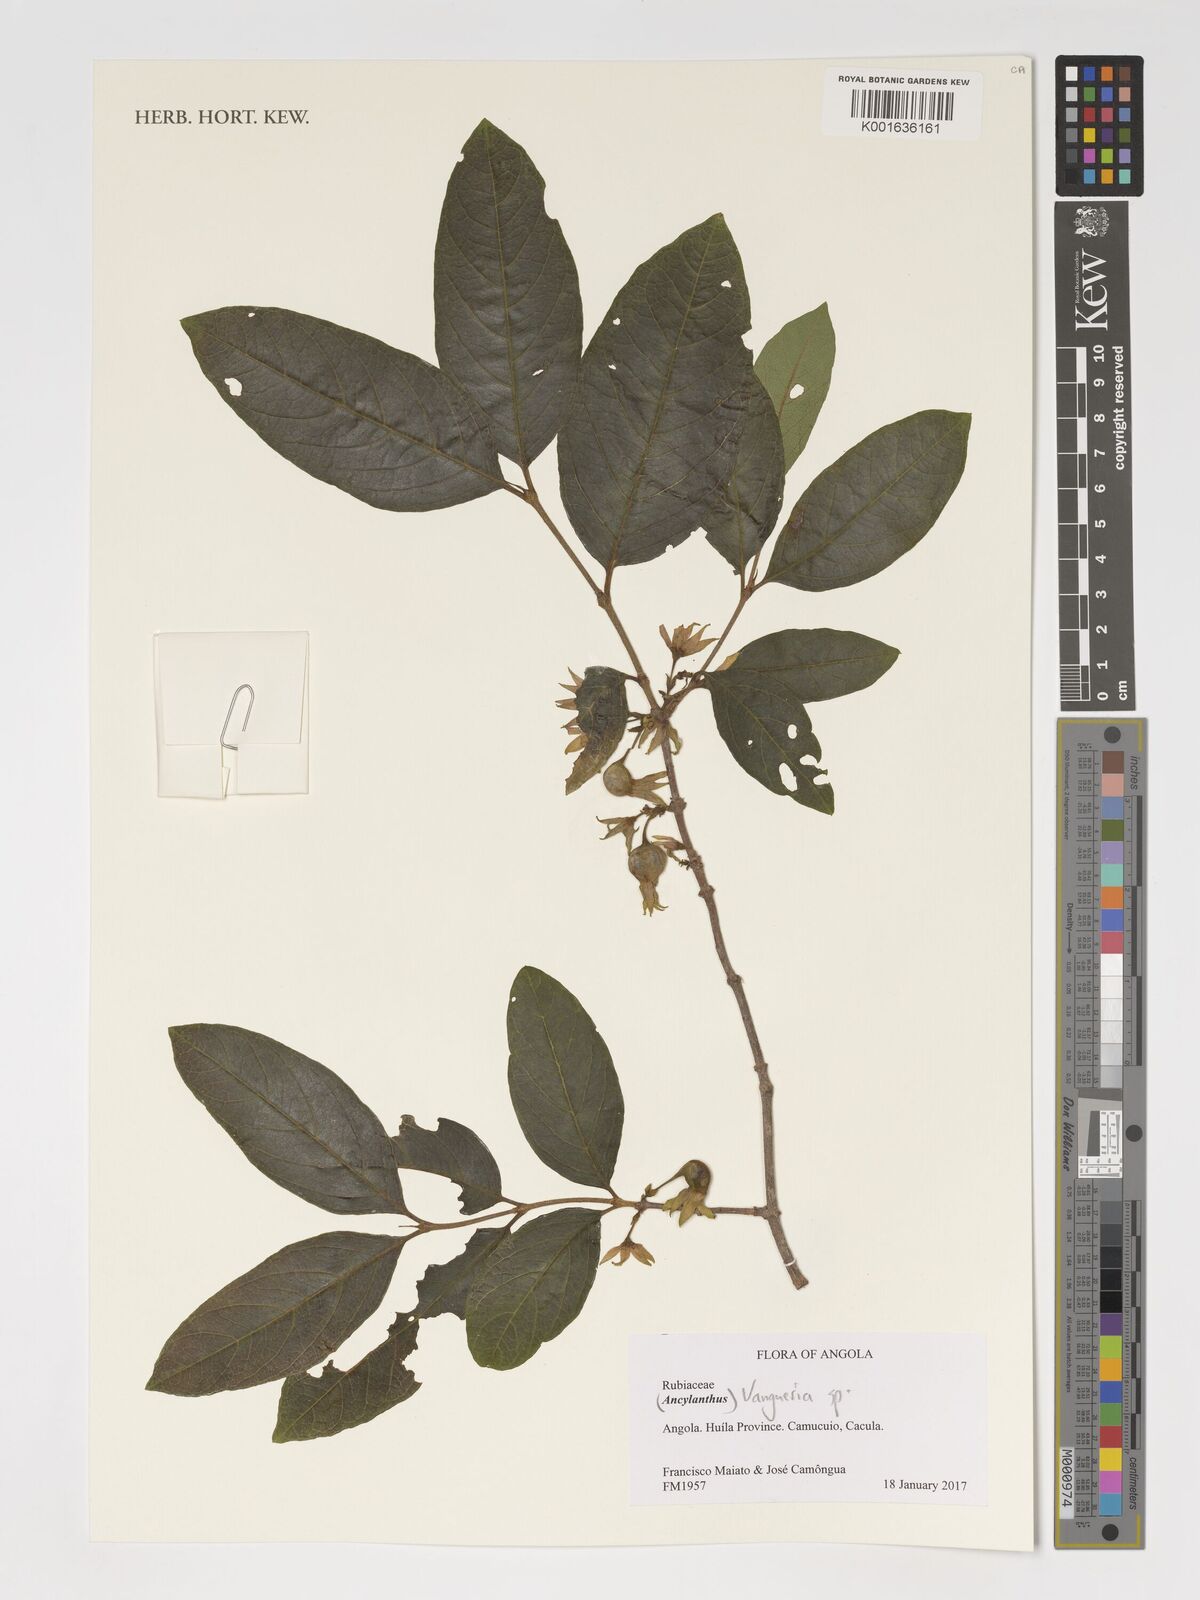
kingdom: Plantae
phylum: Tracheophyta
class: Magnoliopsida
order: Gentianales
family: Rubiaceae
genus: Vangueria
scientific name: Vangueria
